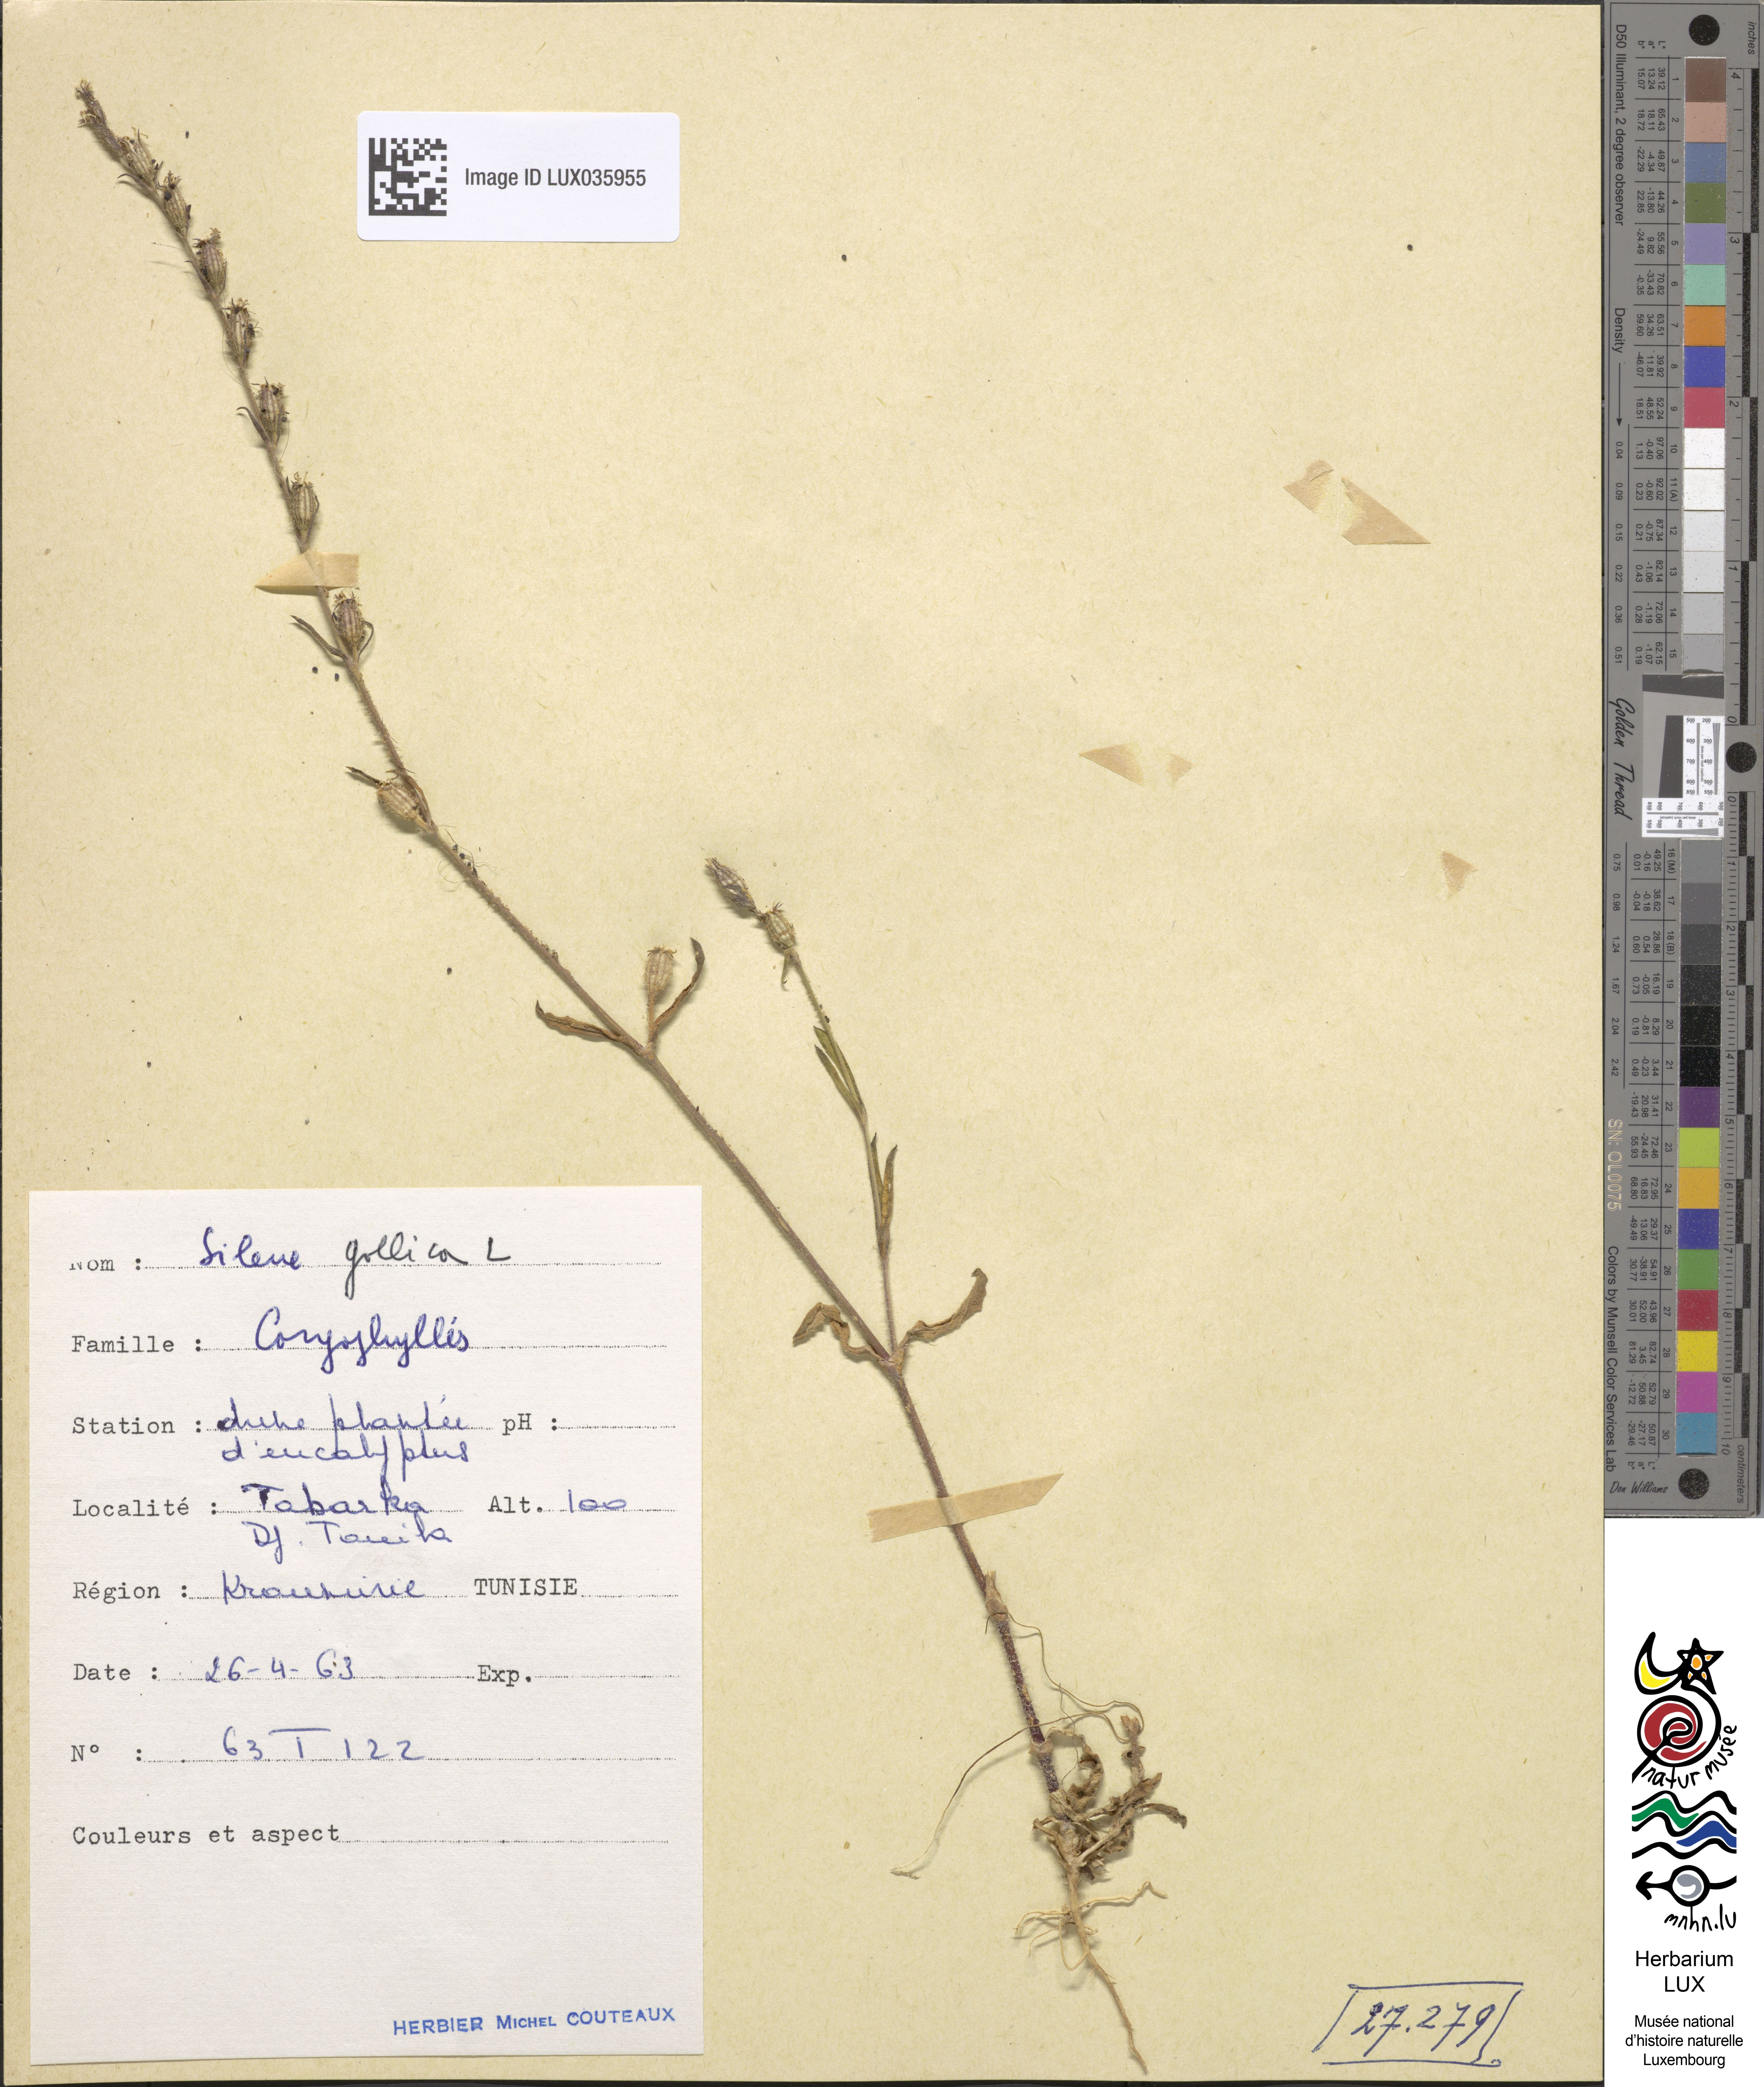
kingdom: Plantae
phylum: Tracheophyta
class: Magnoliopsida
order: Caryophyllales
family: Caryophyllaceae
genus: Silene
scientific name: Silene gallica
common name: Small-flowered catchfly
